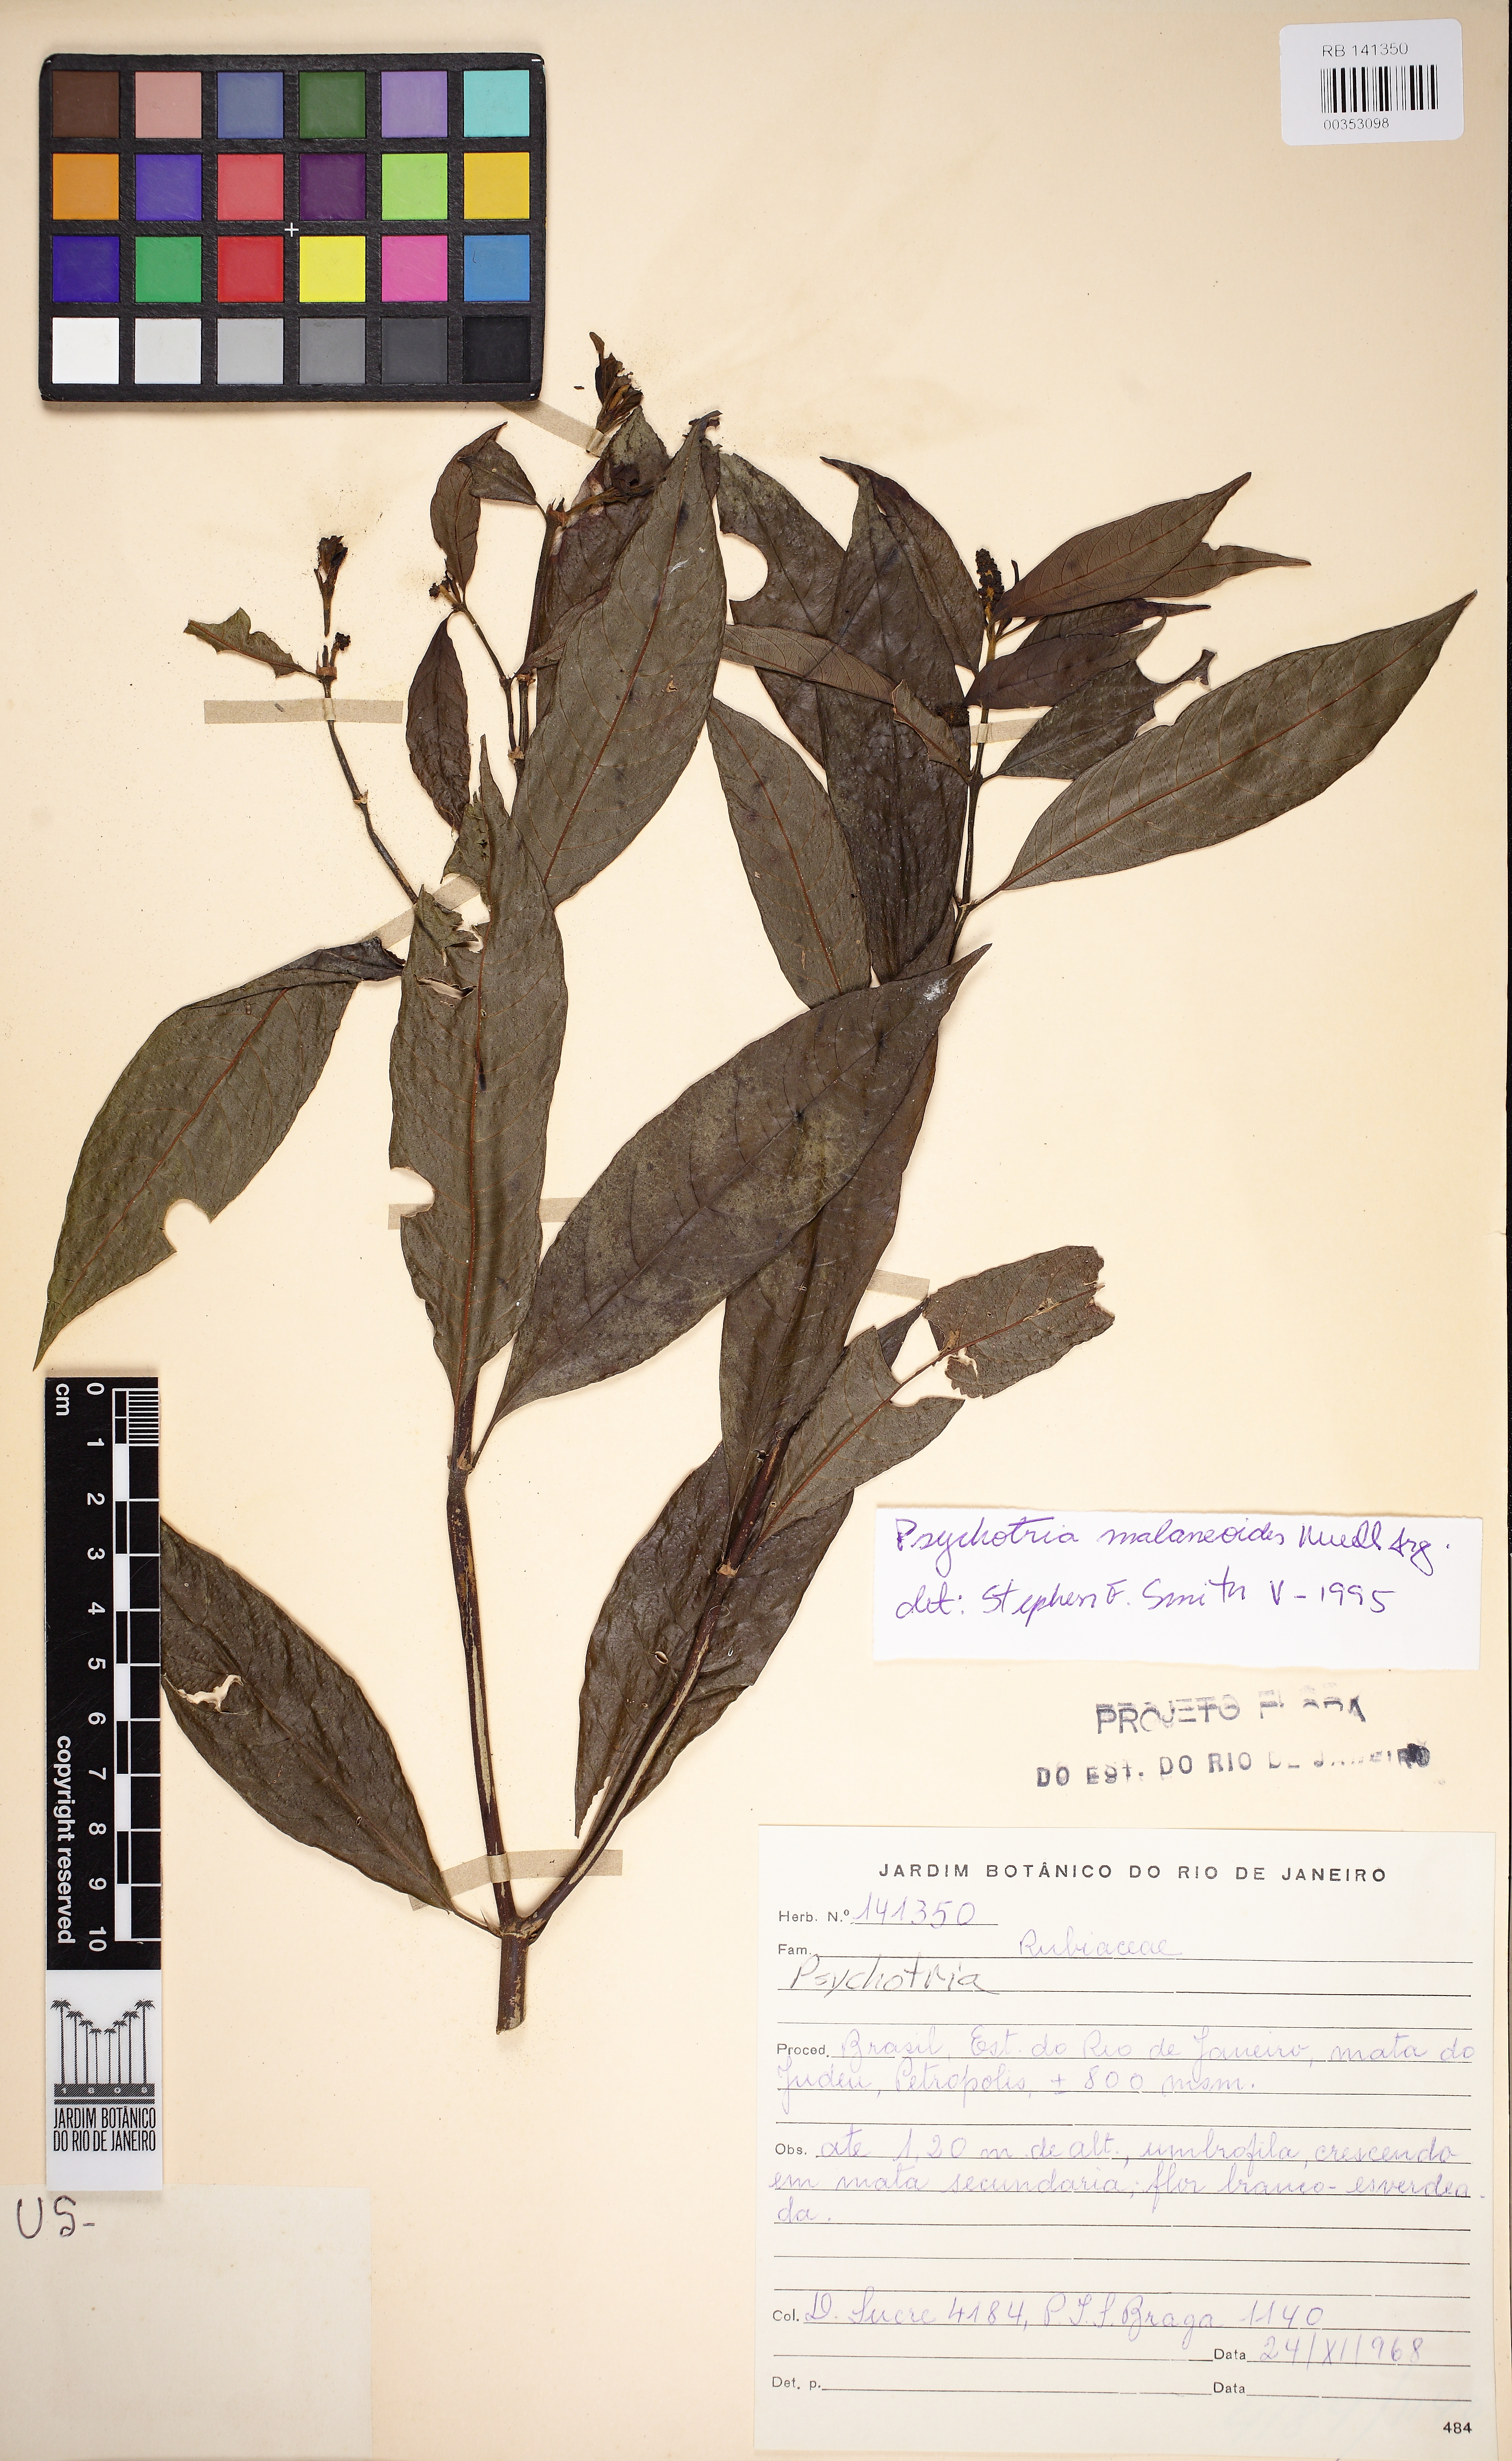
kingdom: Plantae
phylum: Tracheophyta
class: Magnoliopsida
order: Gentianales
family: Rubiaceae
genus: Palicourea
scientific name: Palicourea malaneoides
